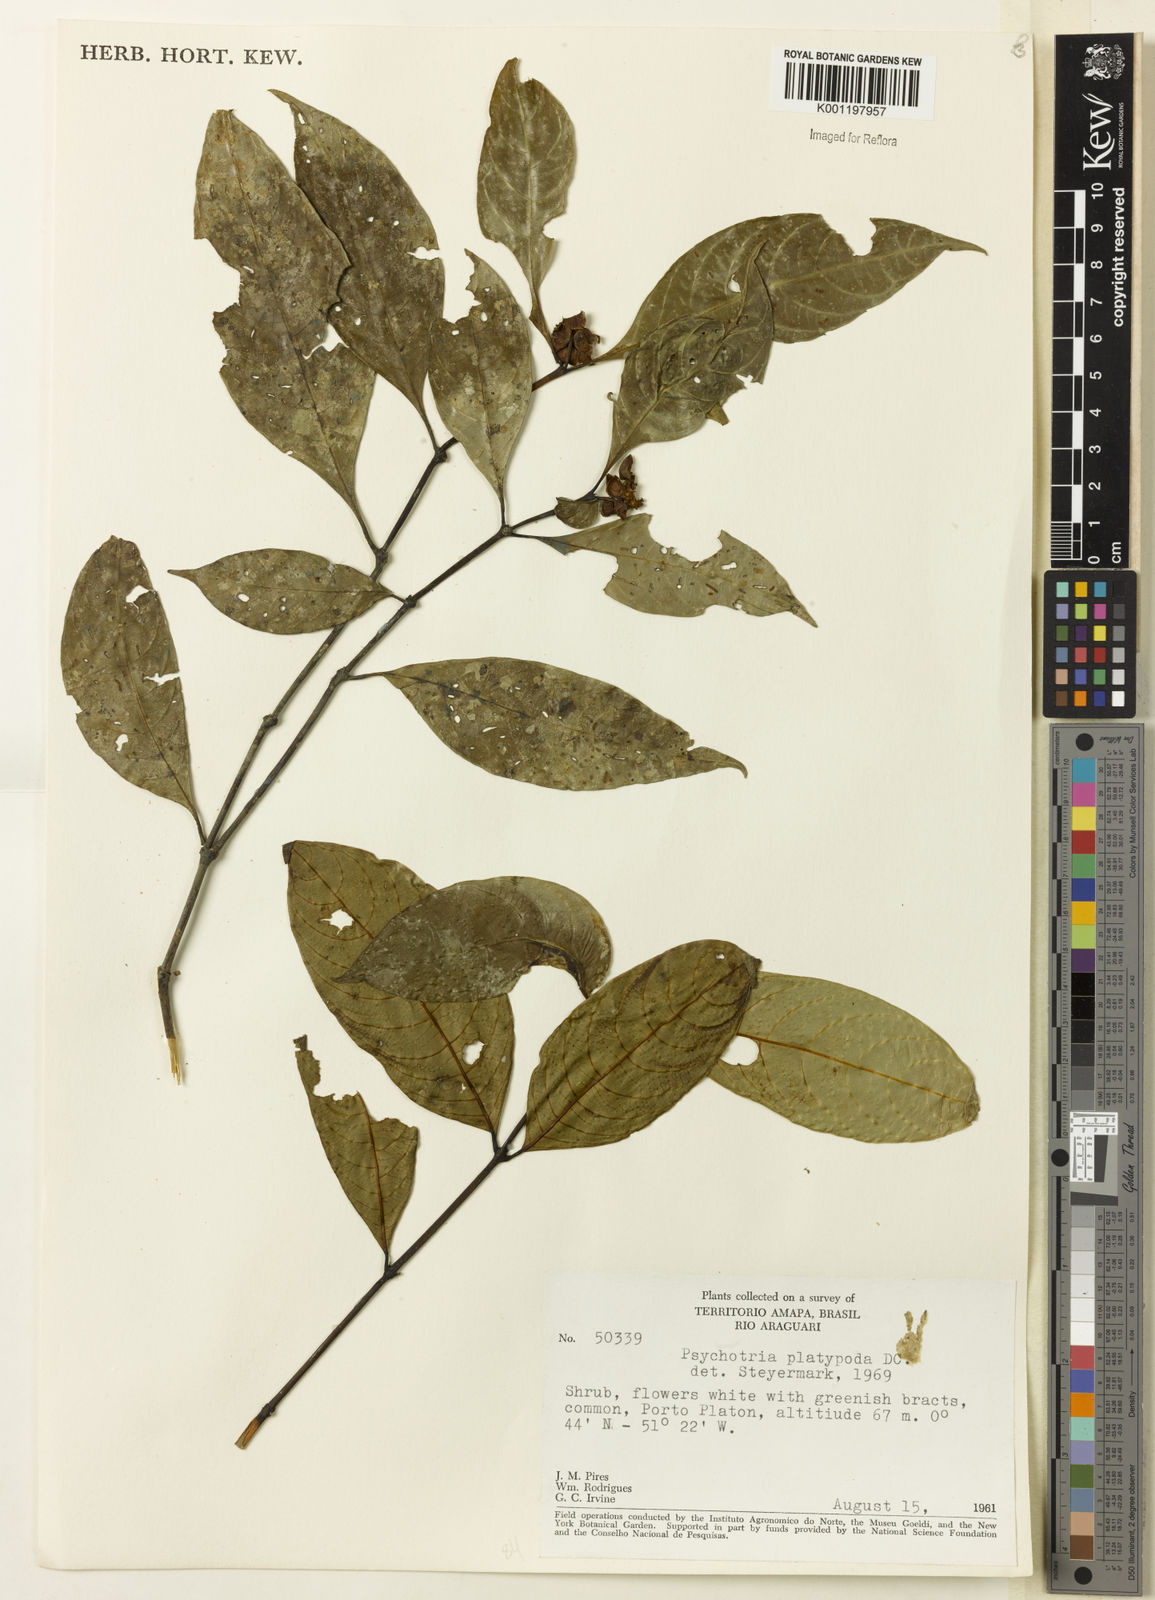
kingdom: Plantae
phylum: Tracheophyta
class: Magnoliopsida
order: Gentianales
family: Rubiaceae
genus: Palicourea
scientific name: Palicourea dichotoma
